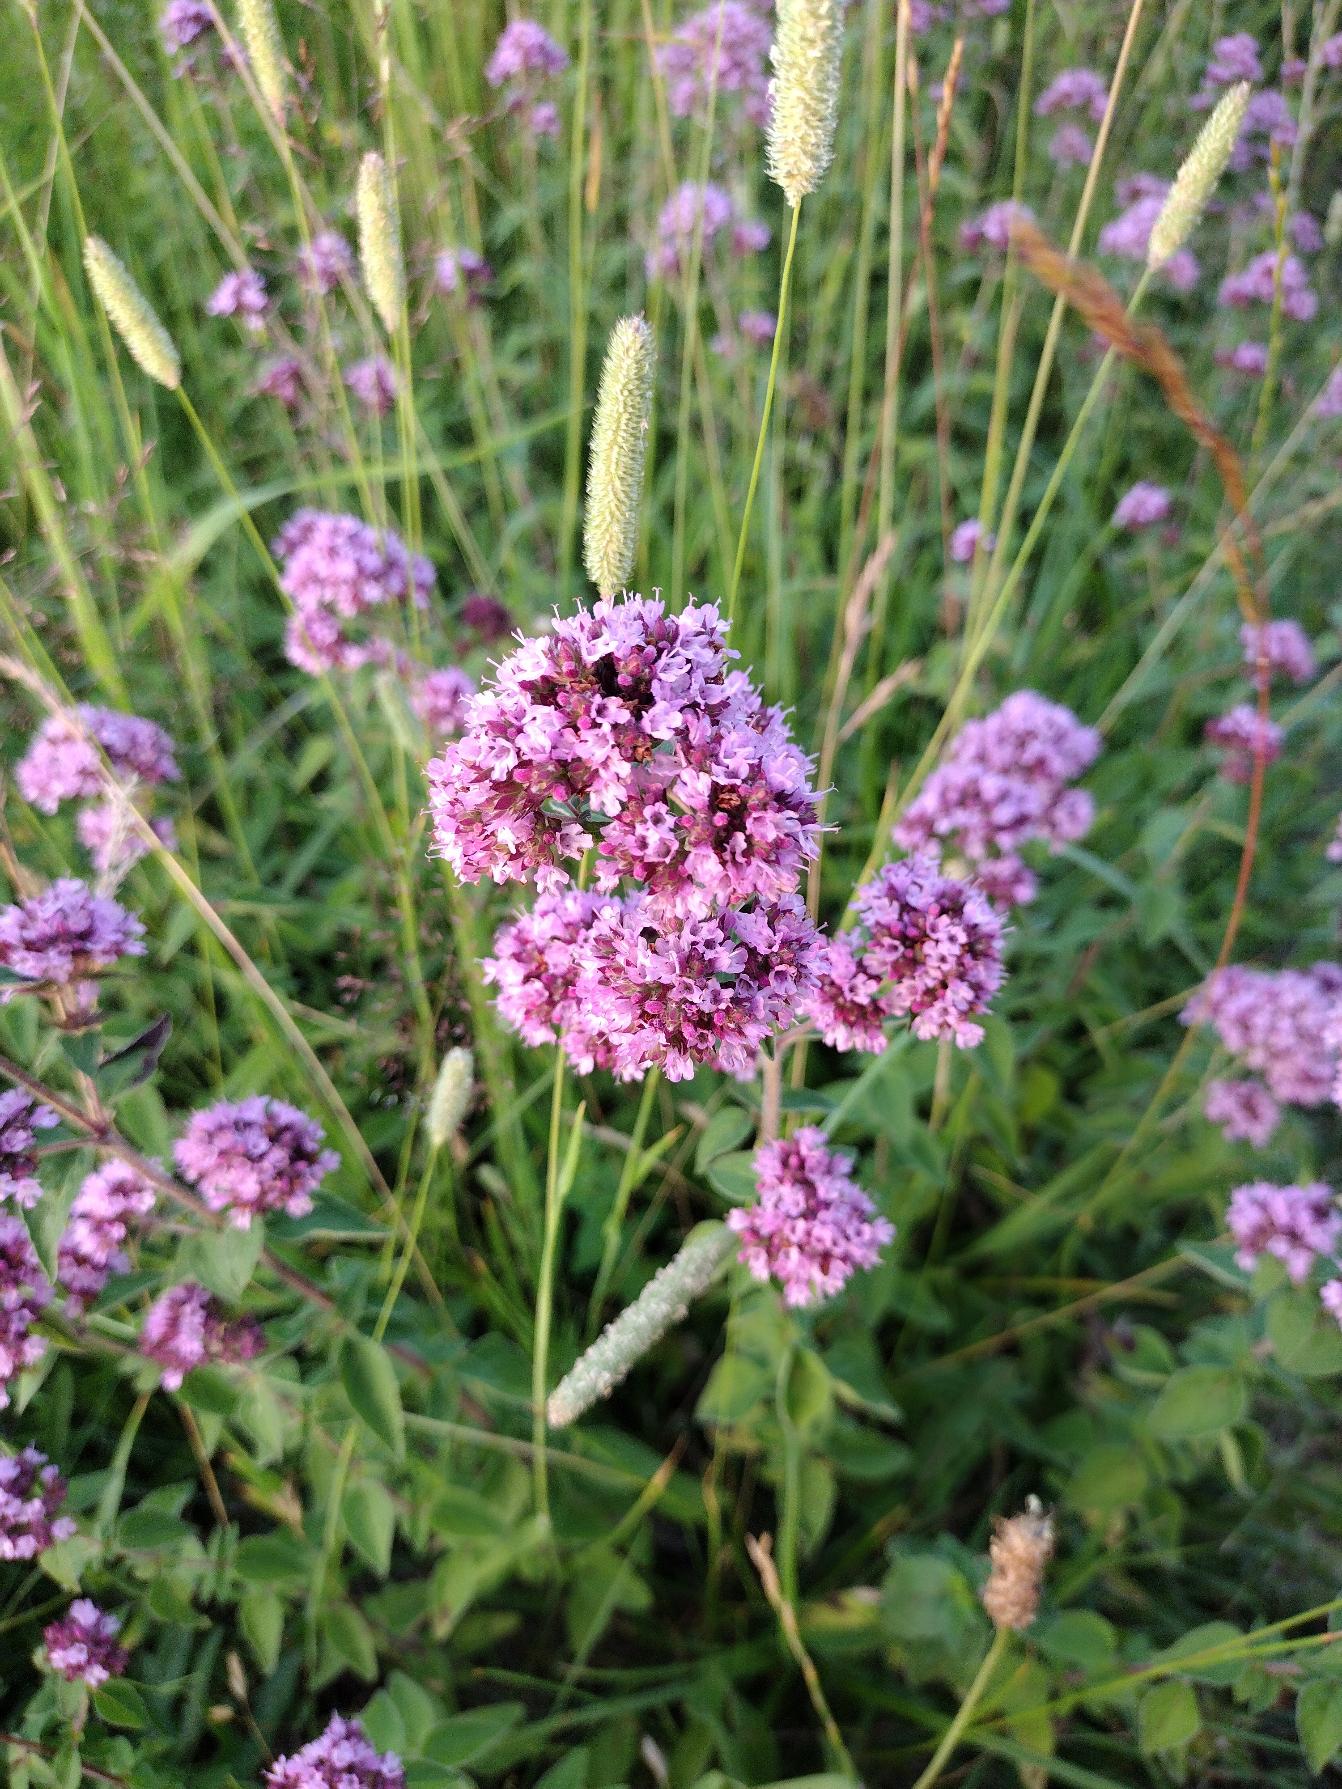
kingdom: Plantae
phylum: Tracheophyta
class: Magnoliopsida
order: Lamiales
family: Lamiaceae
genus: Origanum
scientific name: Origanum vulgare
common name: Merian
